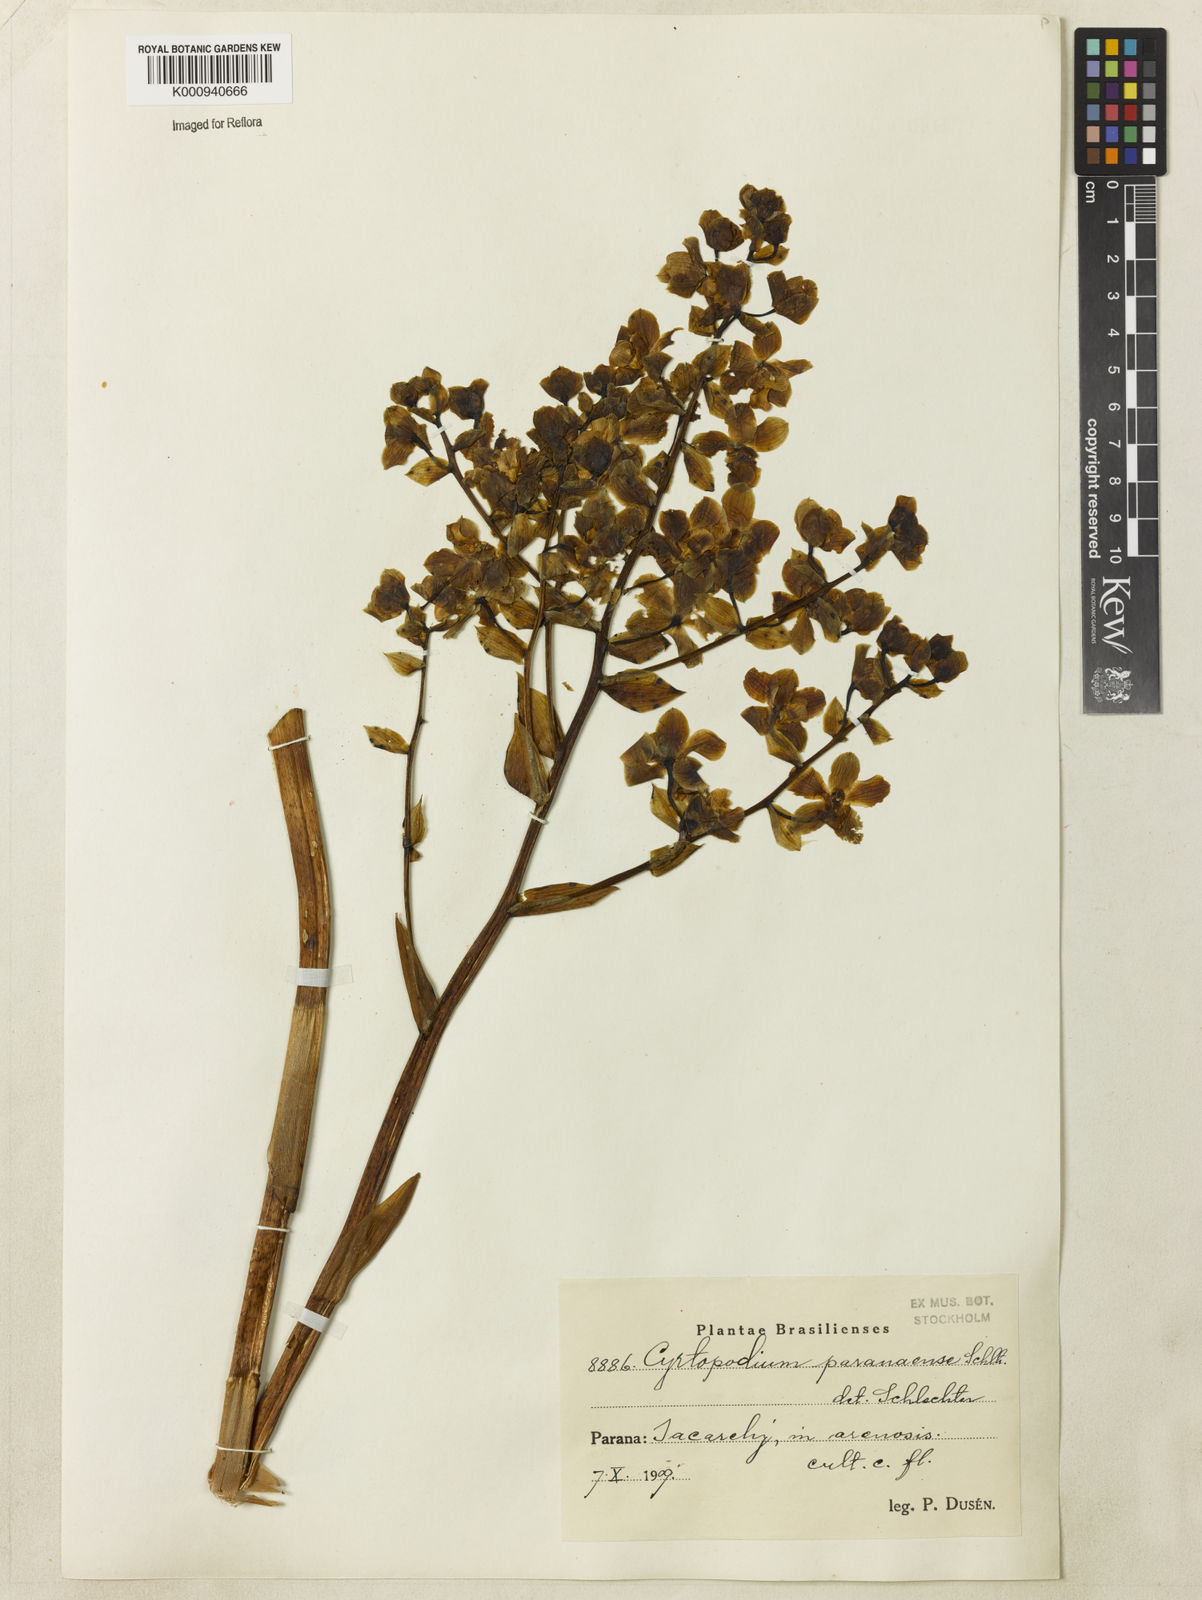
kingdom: Plantae
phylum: Tracheophyta
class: Liliopsida
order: Asparagales
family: Orchidaceae
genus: Cyrtopodium
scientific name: Cyrtopodium flavum
